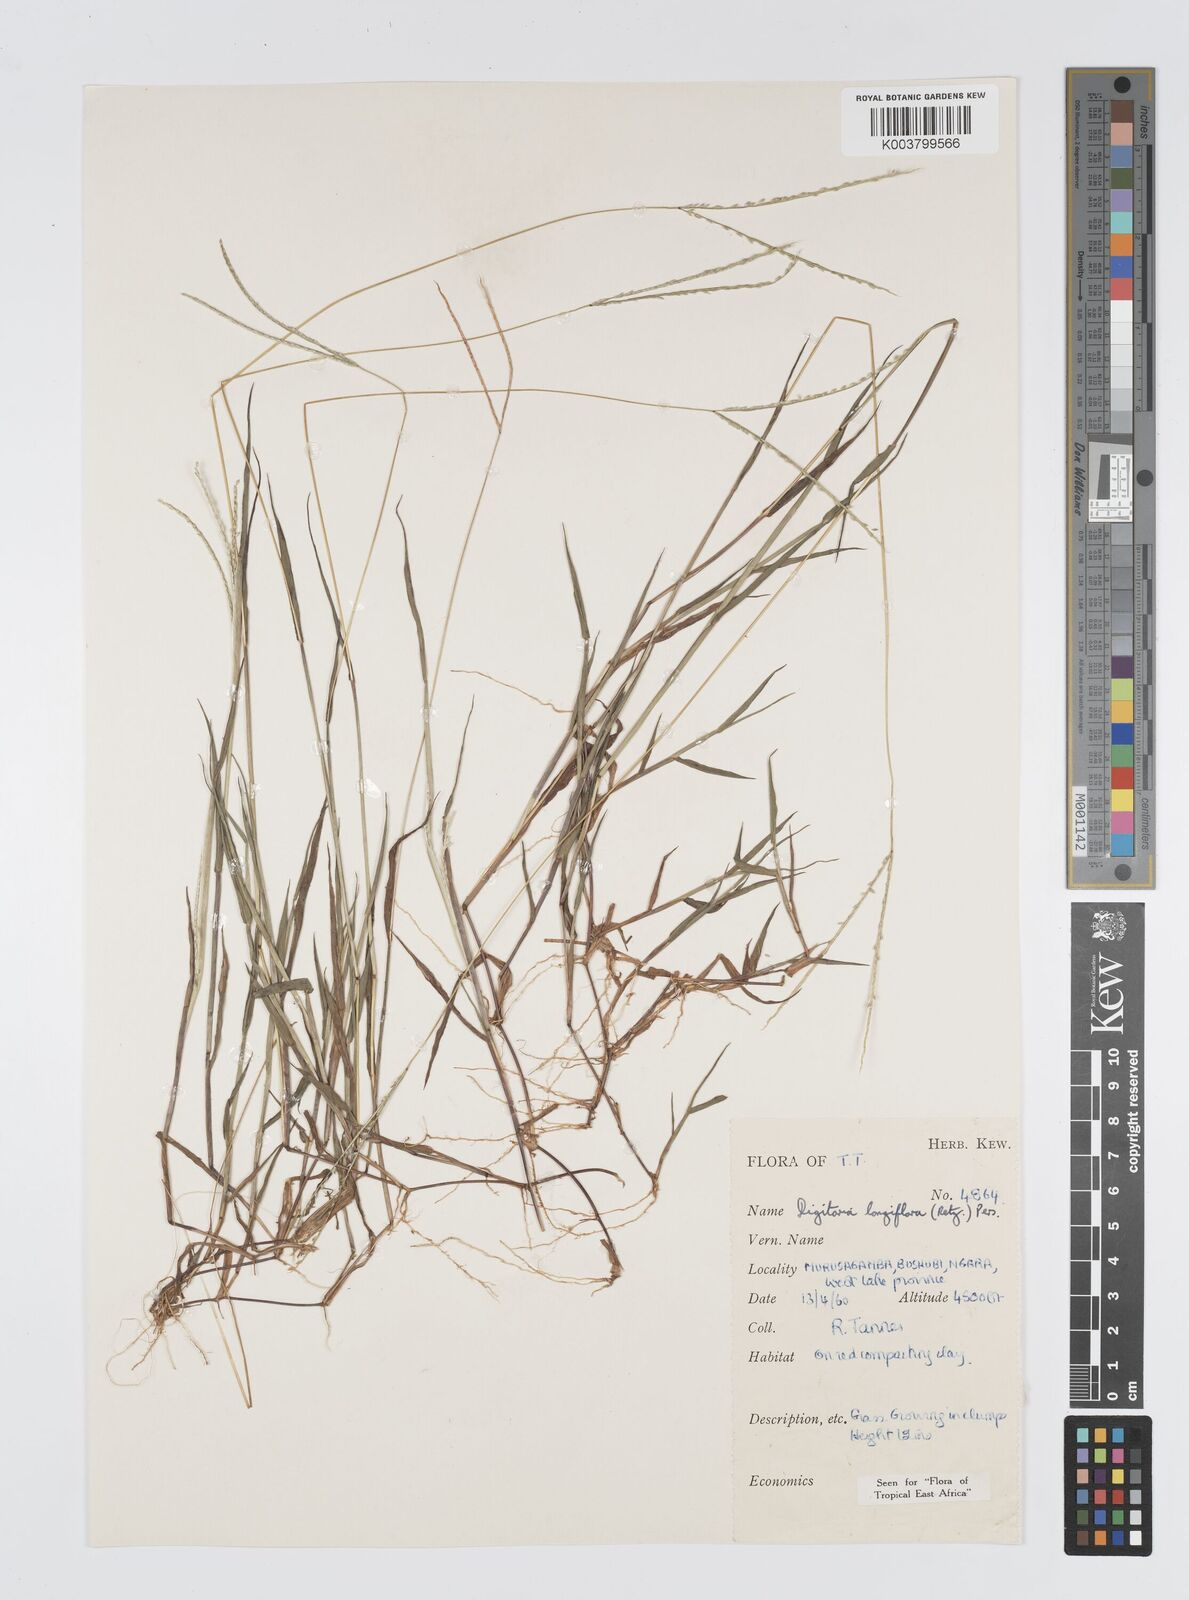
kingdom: Plantae
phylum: Tracheophyta
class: Liliopsida
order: Poales
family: Poaceae
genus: Digitaria
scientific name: Digitaria longiflora
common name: Wire crabgrass
